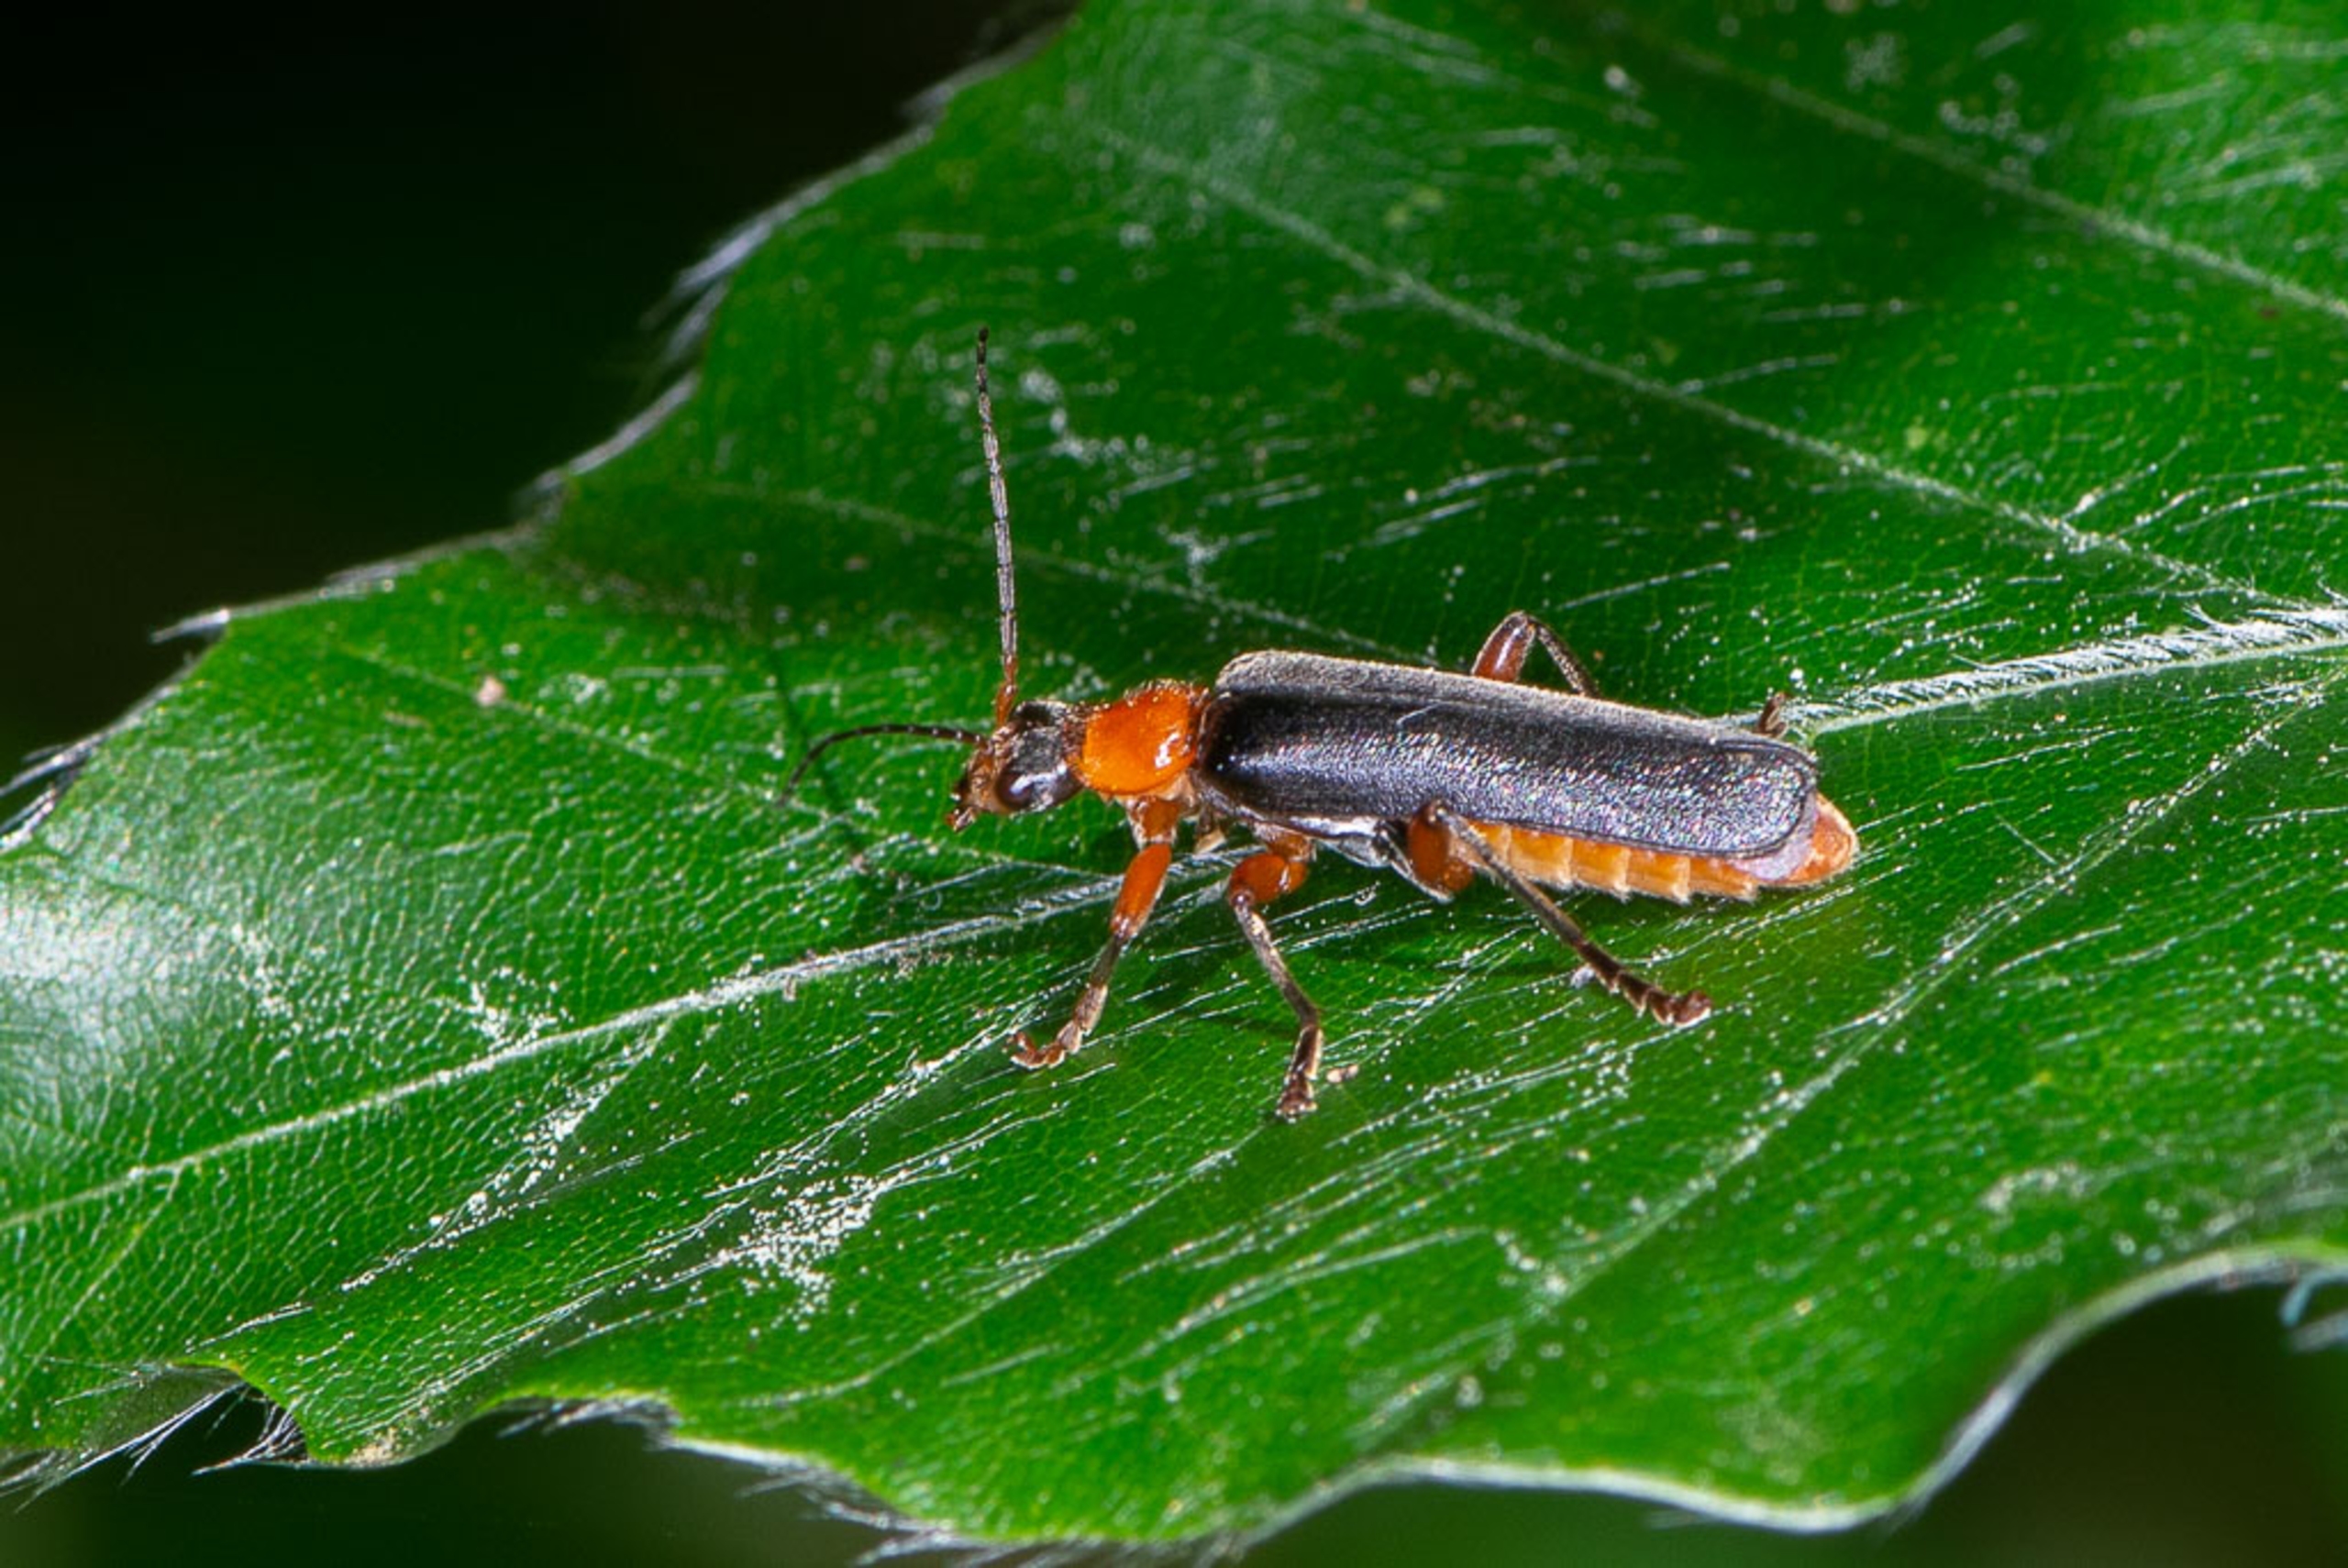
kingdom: Animalia
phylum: Arthropoda
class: Insecta
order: Coleoptera
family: Cantharidae
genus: Cantharis
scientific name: Cantharis pellucida
